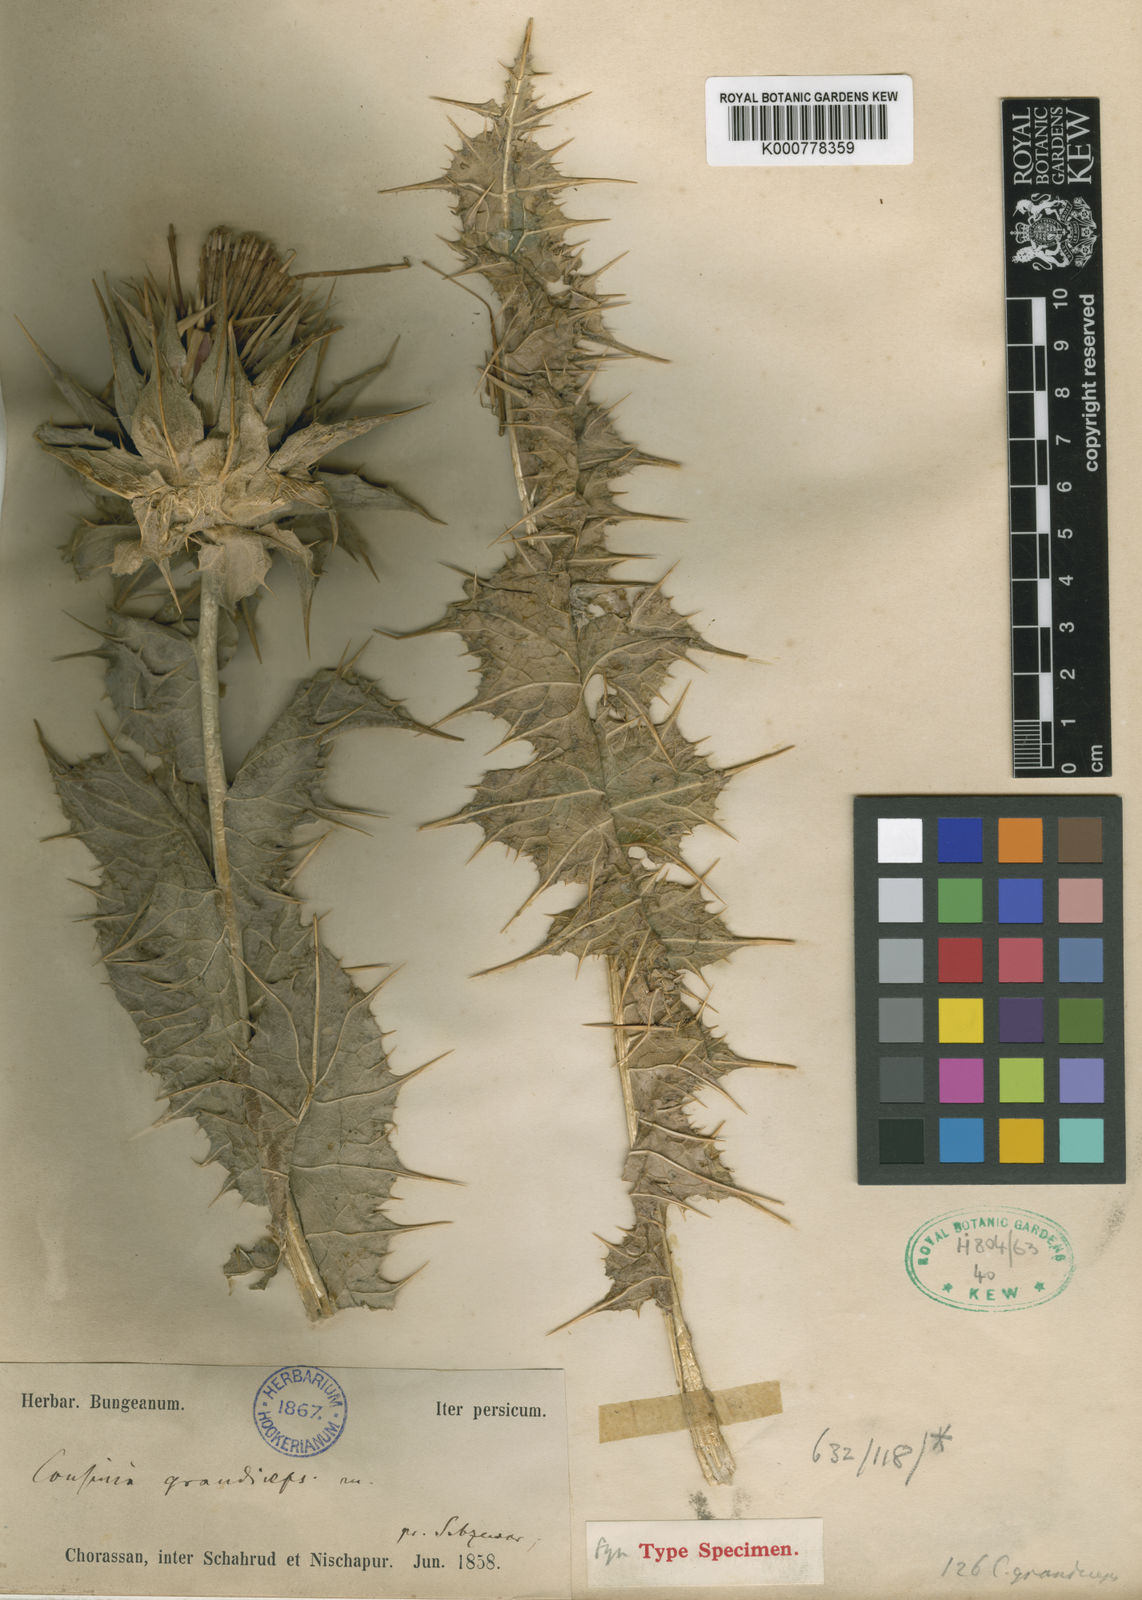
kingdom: Plantae
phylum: Tracheophyta
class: Magnoliopsida
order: Asterales
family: Asteraceae
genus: Cousinia
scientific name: Cousinia macrocephala
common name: Macrocephalous cousinia
